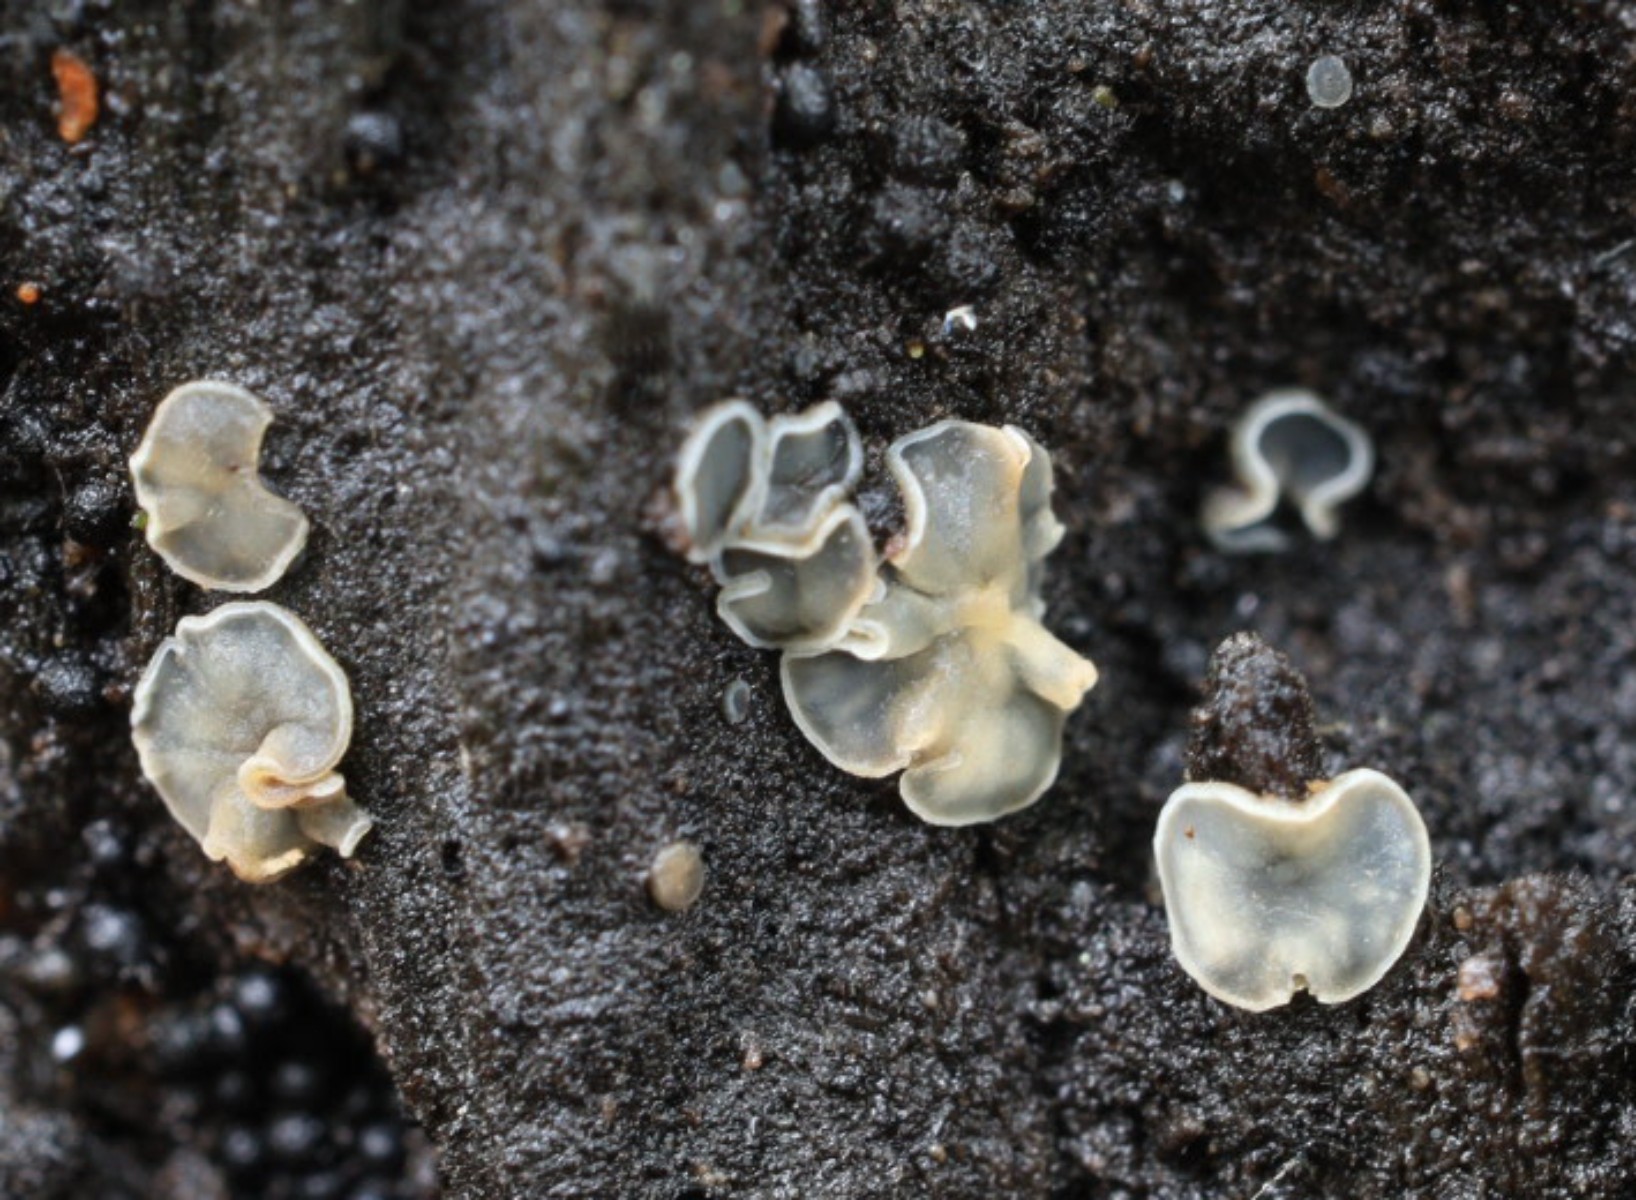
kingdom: Fungi
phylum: Ascomycota
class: Leotiomycetes
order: Helotiales
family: Mollisiaceae
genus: Mollisia
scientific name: Mollisia
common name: gråskive
